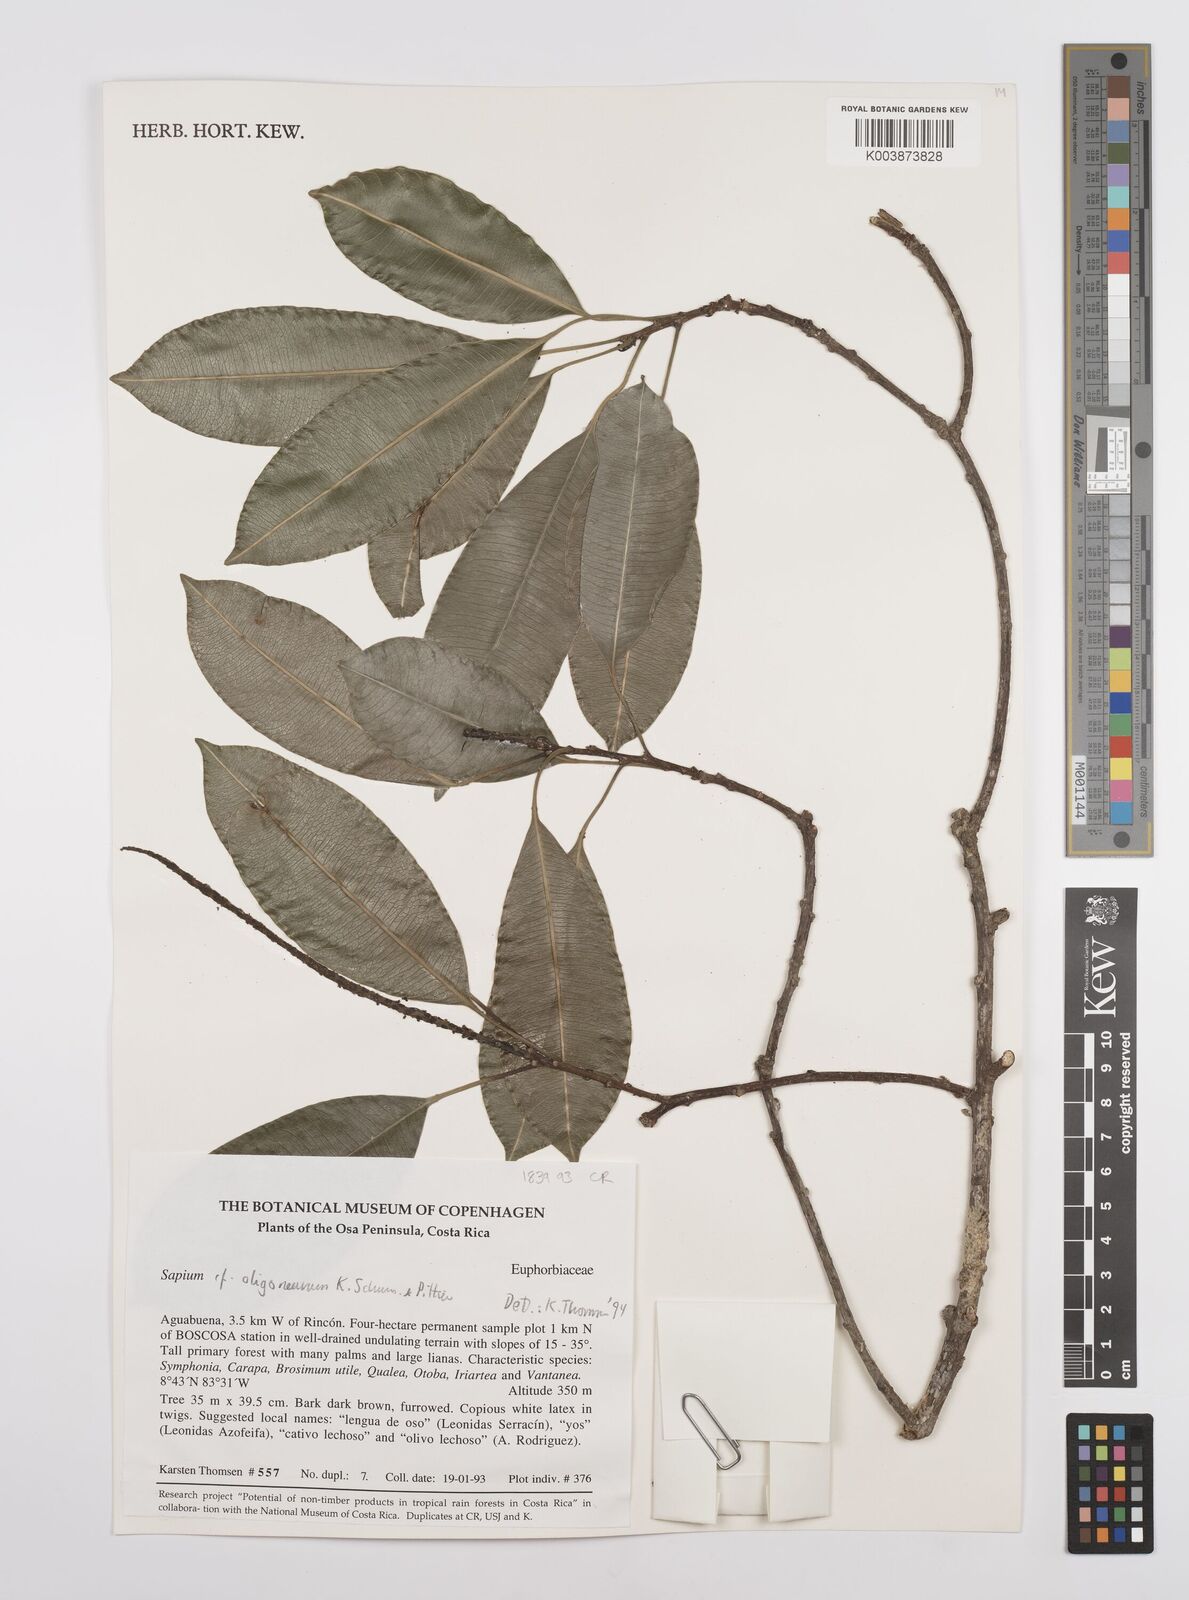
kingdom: Plantae
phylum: Tracheophyta
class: Magnoliopsida
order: Malpighiales
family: Euphorbiaceae
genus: Sapium
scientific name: Sapium glandulosum
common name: Milktree
